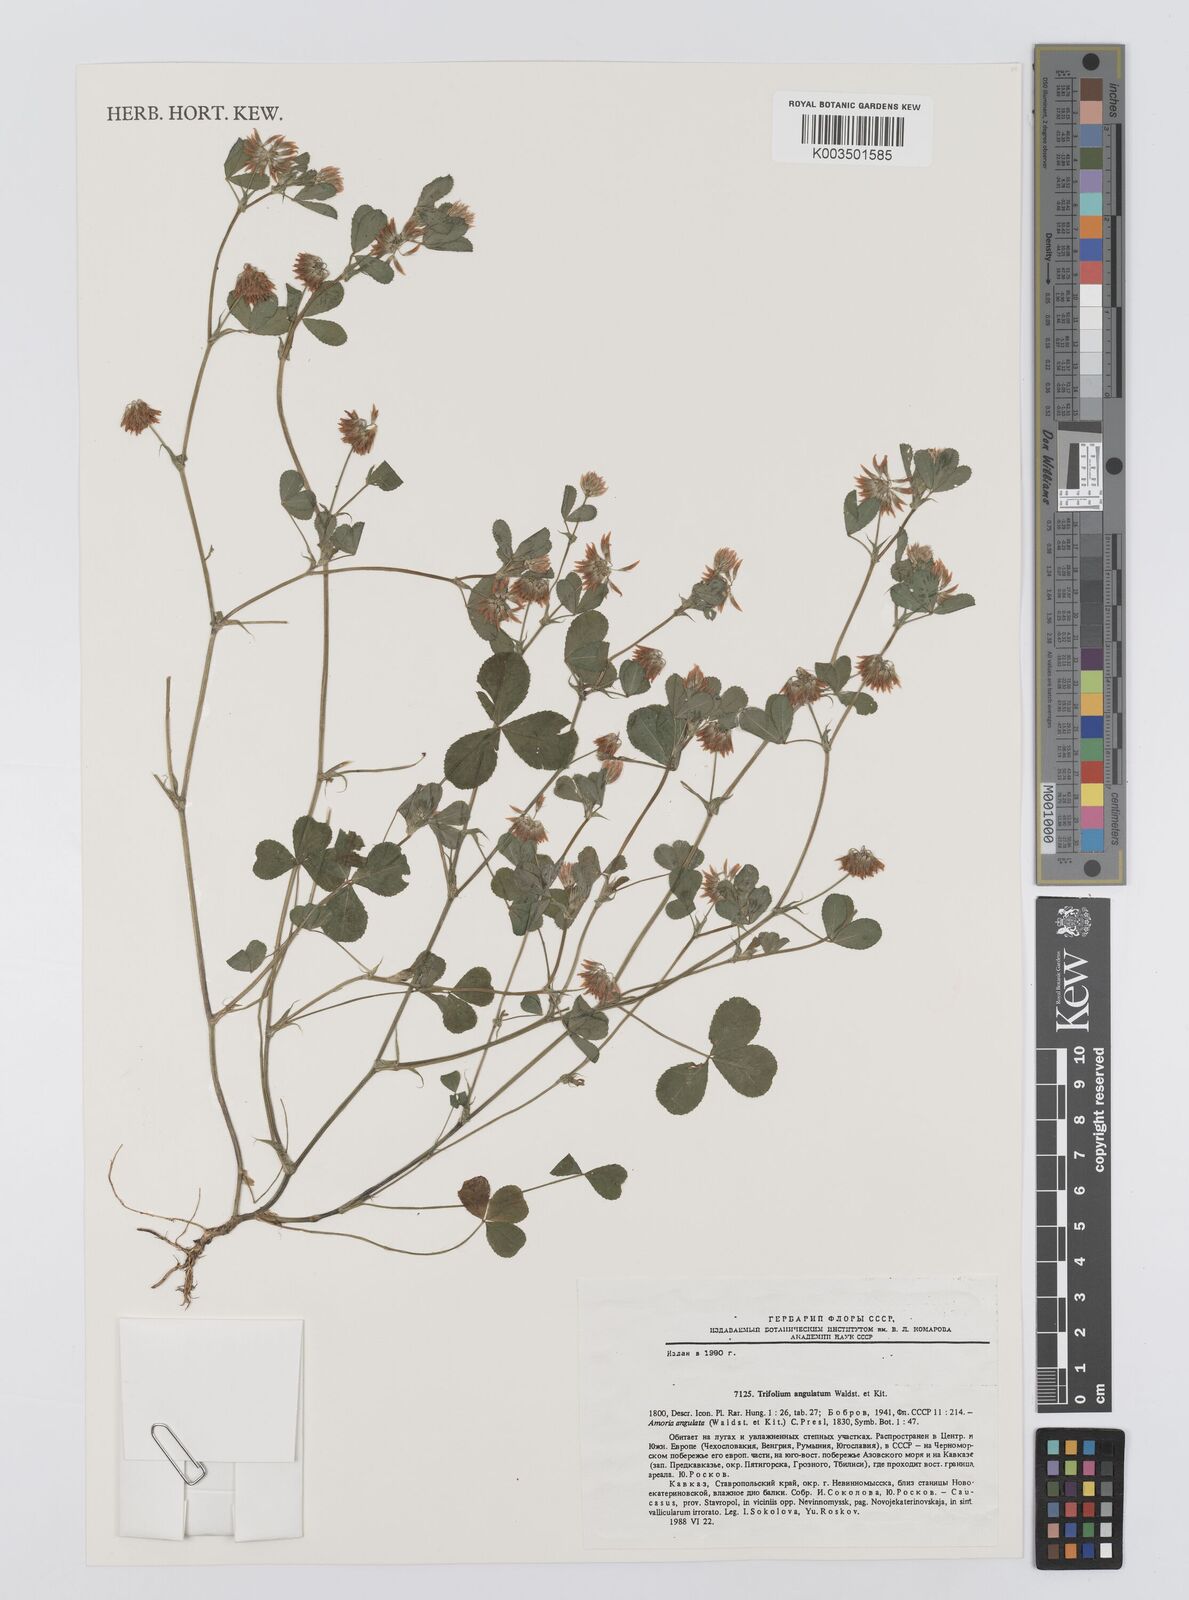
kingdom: Plantae
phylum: Tracheophyta
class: Magnoliopsida
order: Fabales
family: Fabaceae
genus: Trifolium
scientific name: Trifolium angulatum
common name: Angled clover
